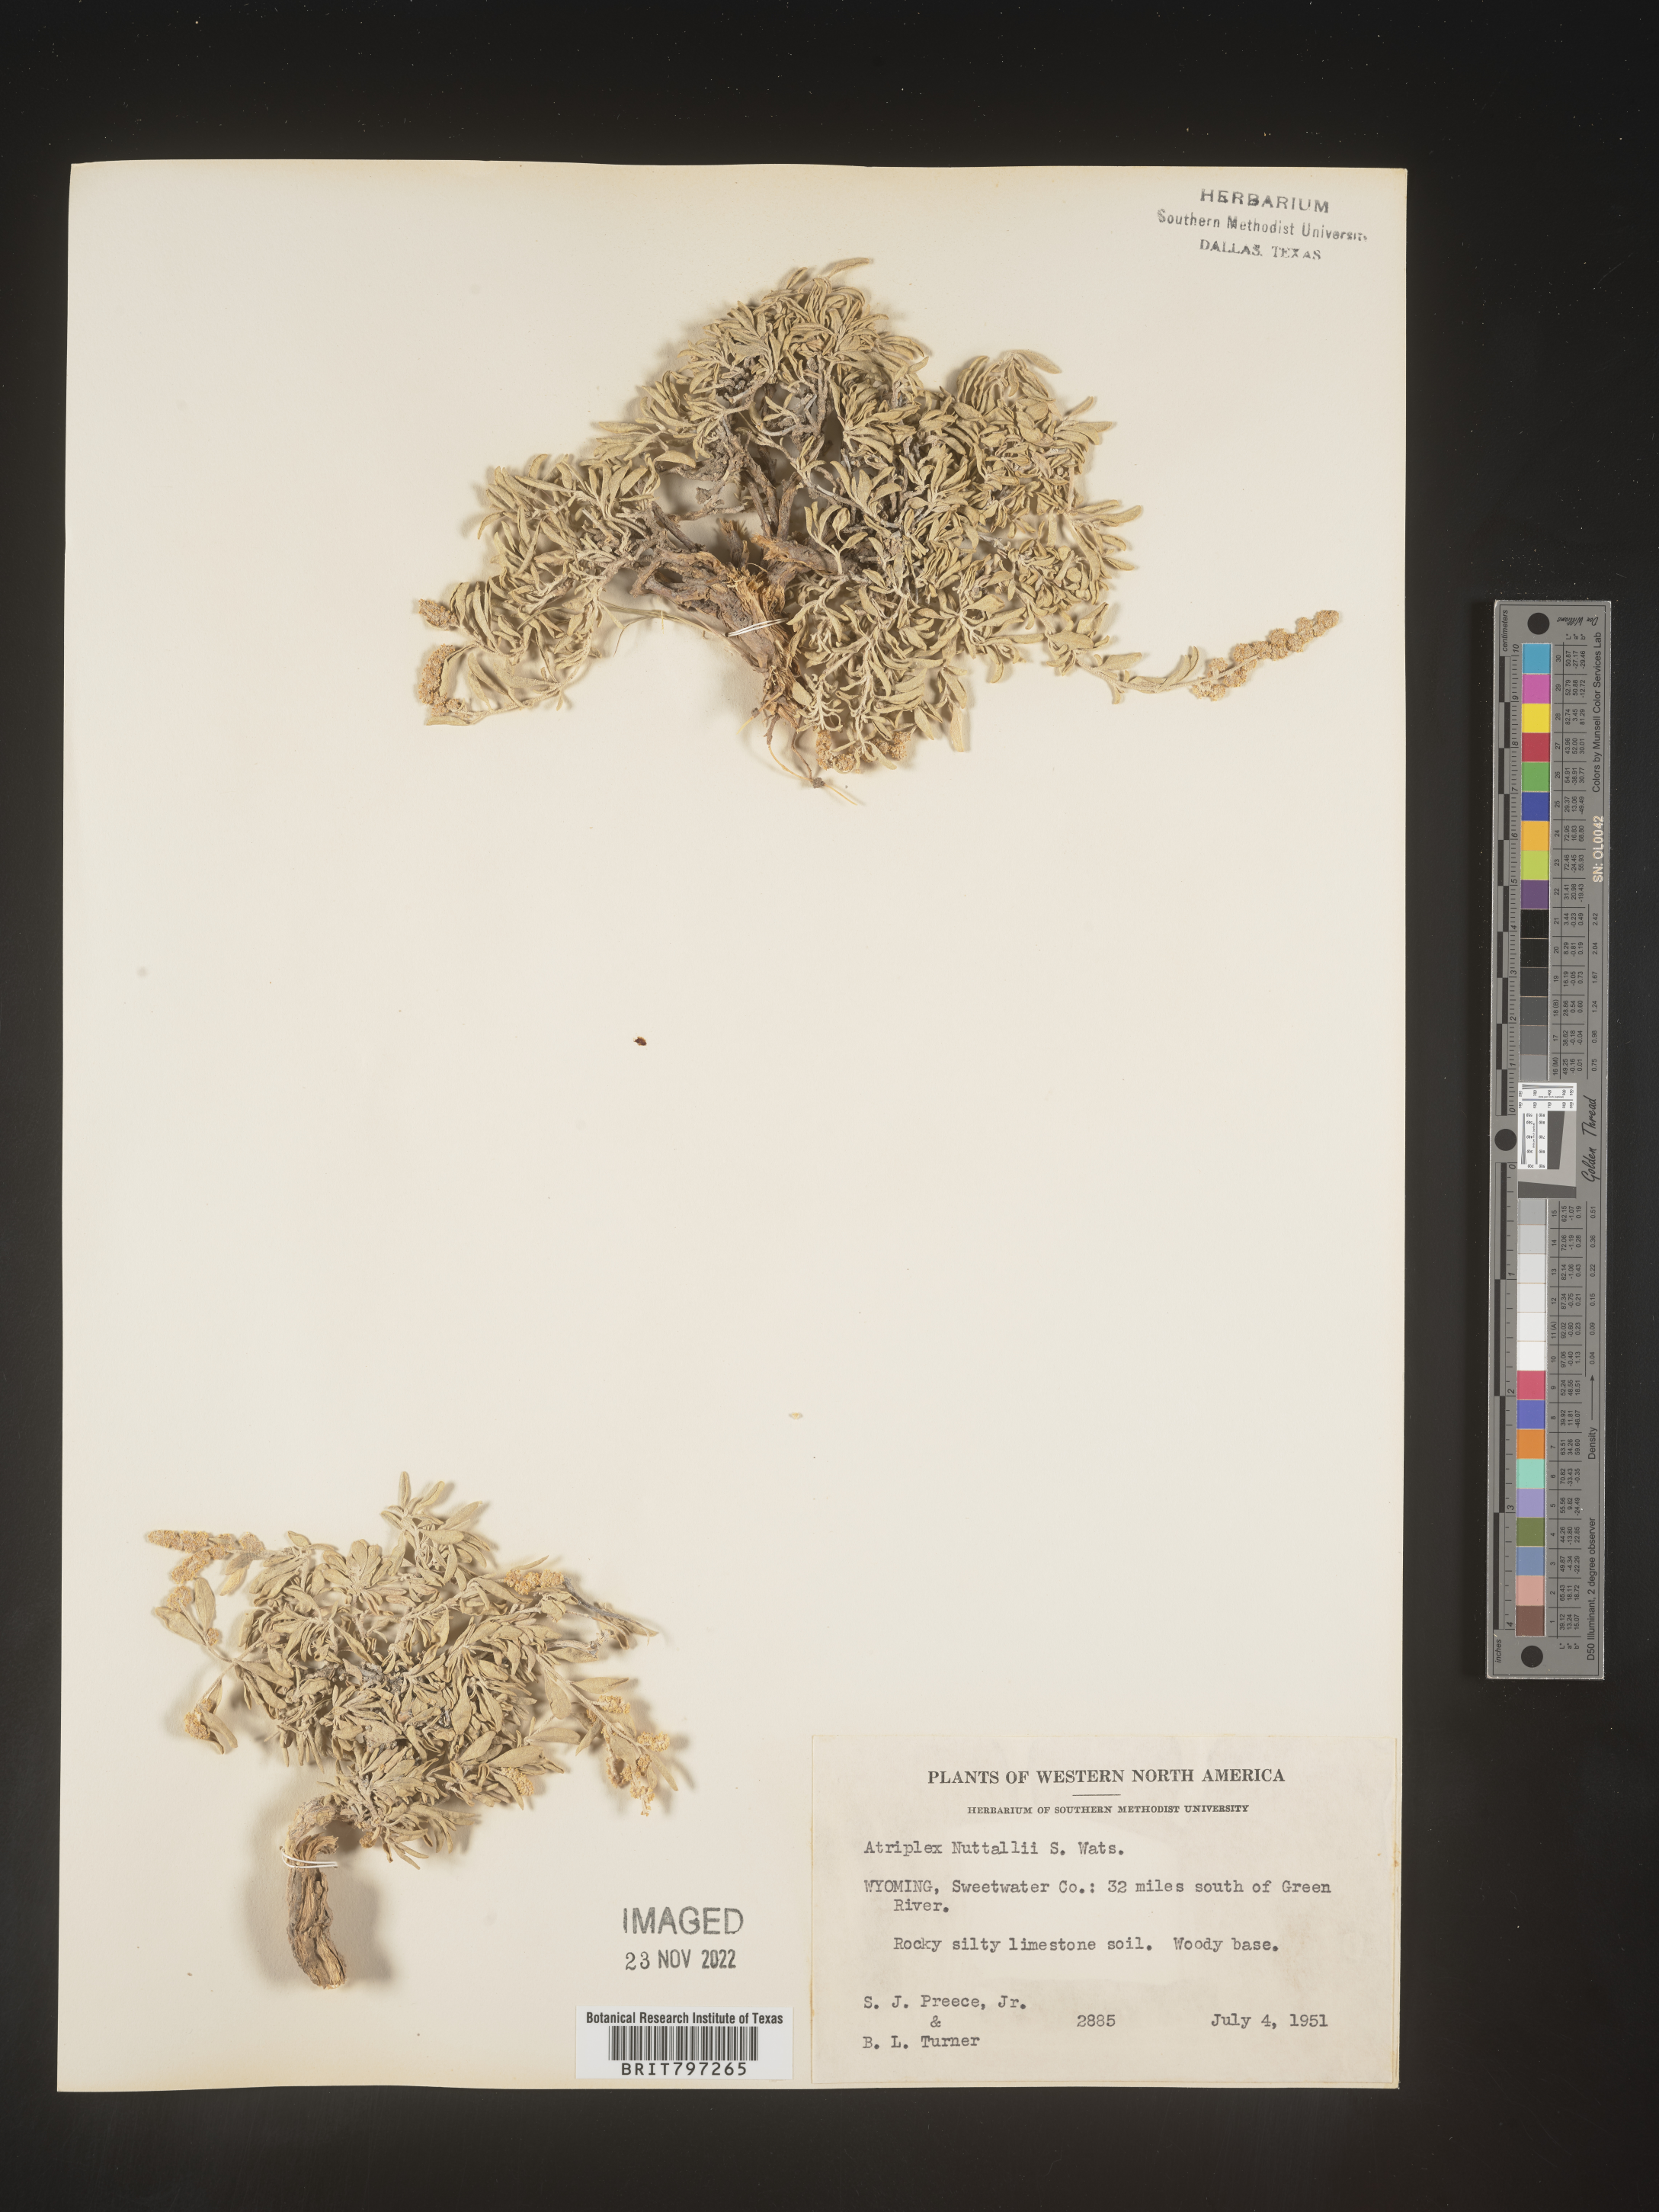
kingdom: Plantae
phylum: Tracheophyta
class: Magnoliopsida
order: Caryophyllales
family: Amaranthaceae
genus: Atriplex
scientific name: Atriplex
